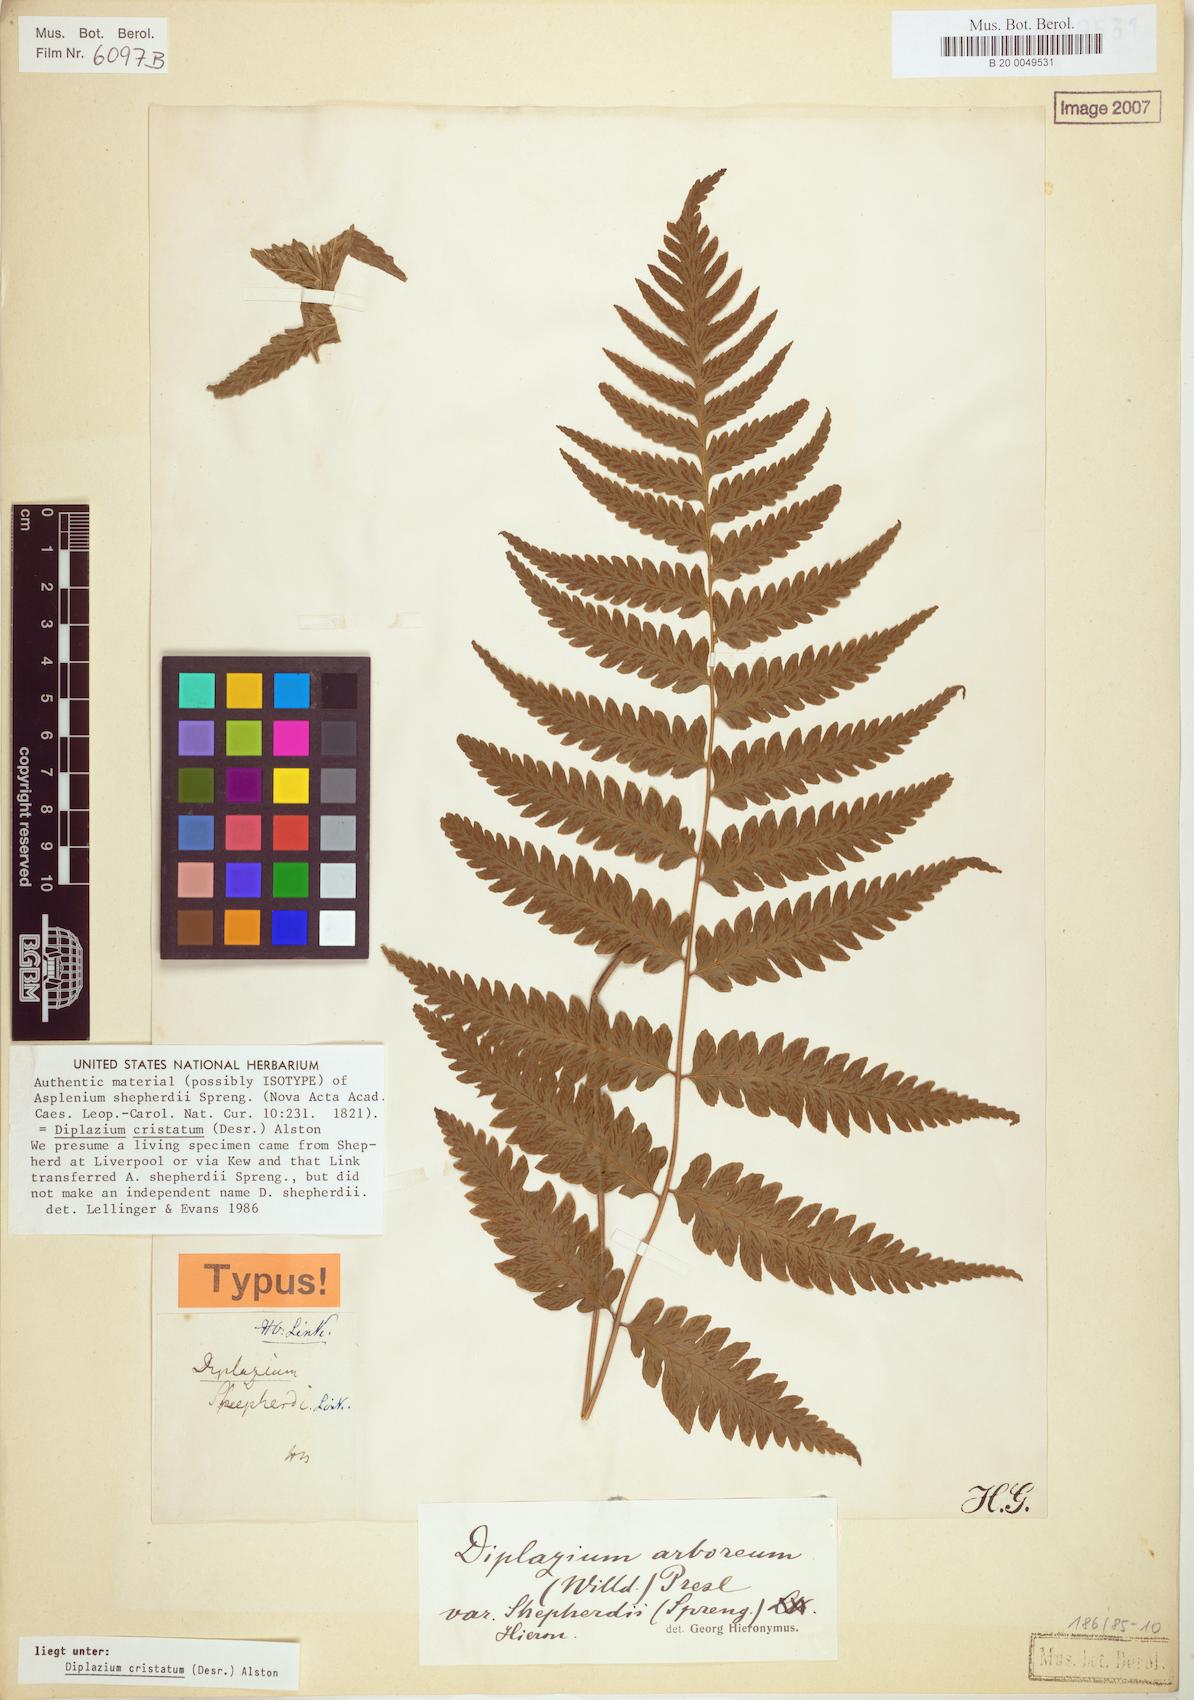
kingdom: Plantae
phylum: Tracheophyta
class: Polypodiopsida
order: Polypodiales
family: Athyriaceae
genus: Diplazium
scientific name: Diplazium cristatum
